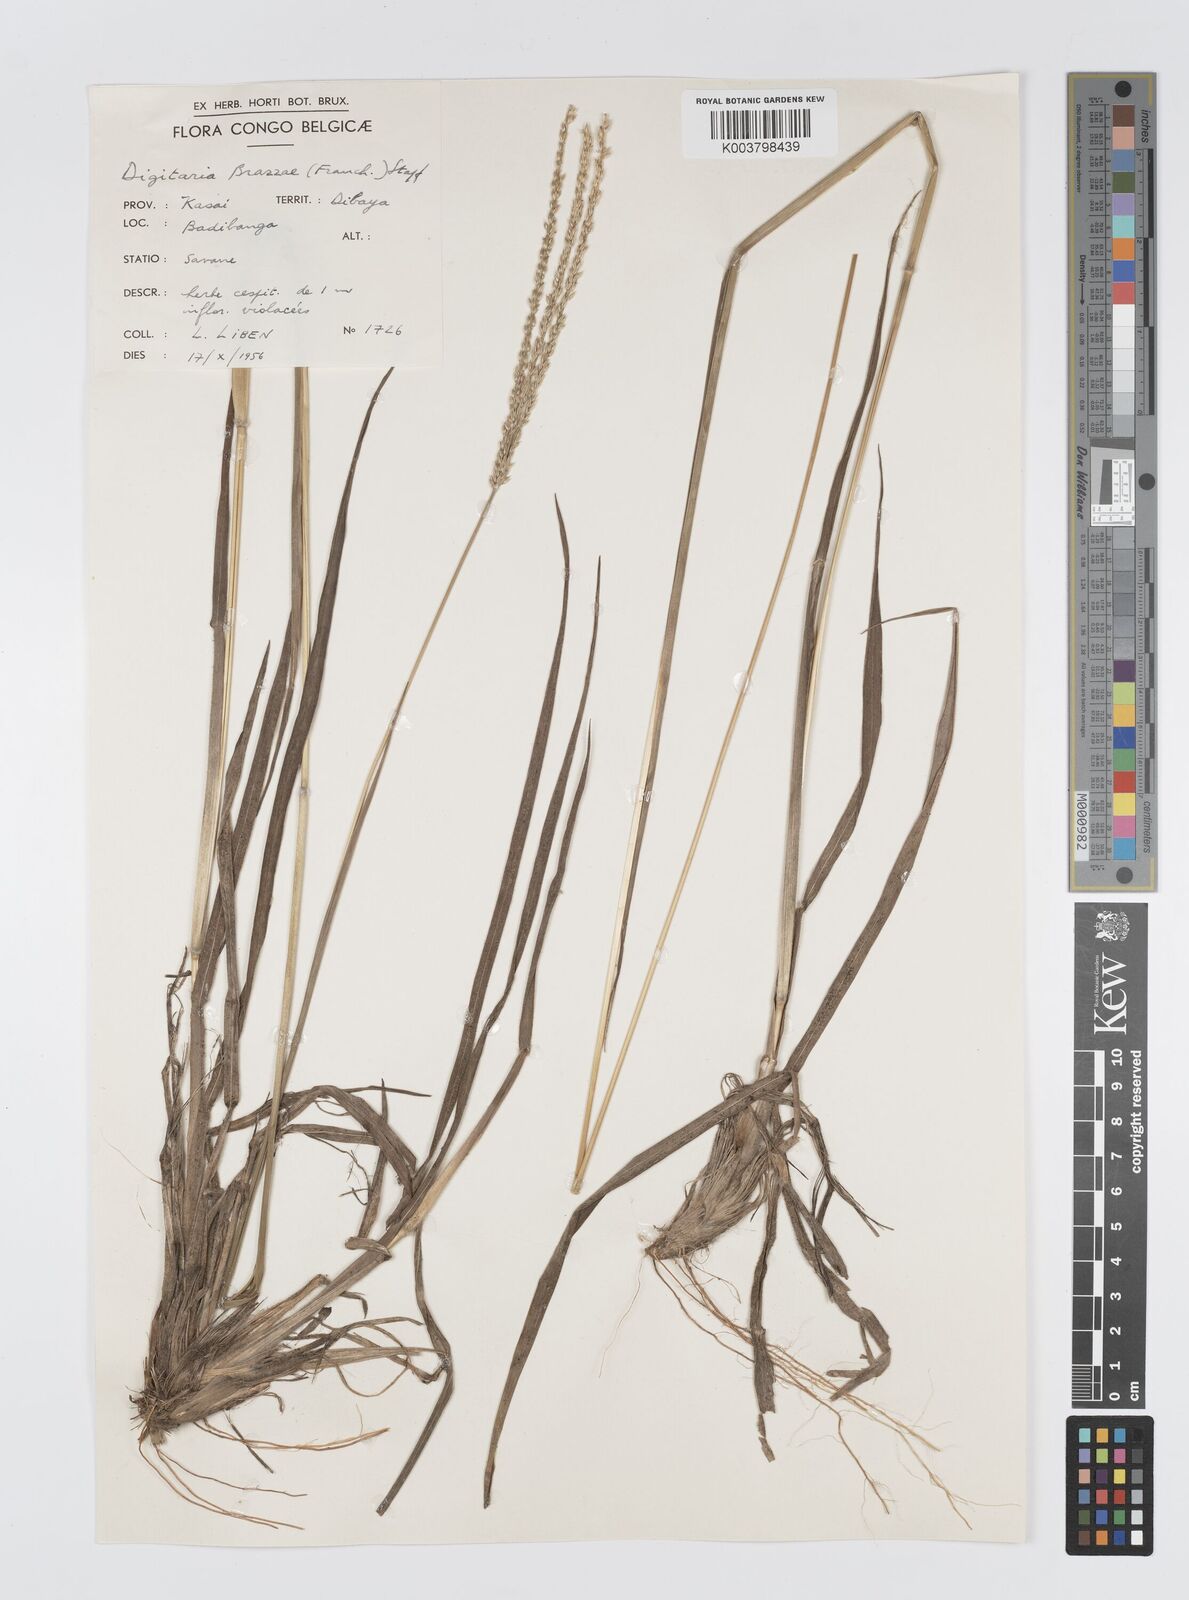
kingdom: Plantae
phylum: Tracheophyta
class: Liliopsida
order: Poales
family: Poaceae
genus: Digitaria
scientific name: Digitaria brazzae
